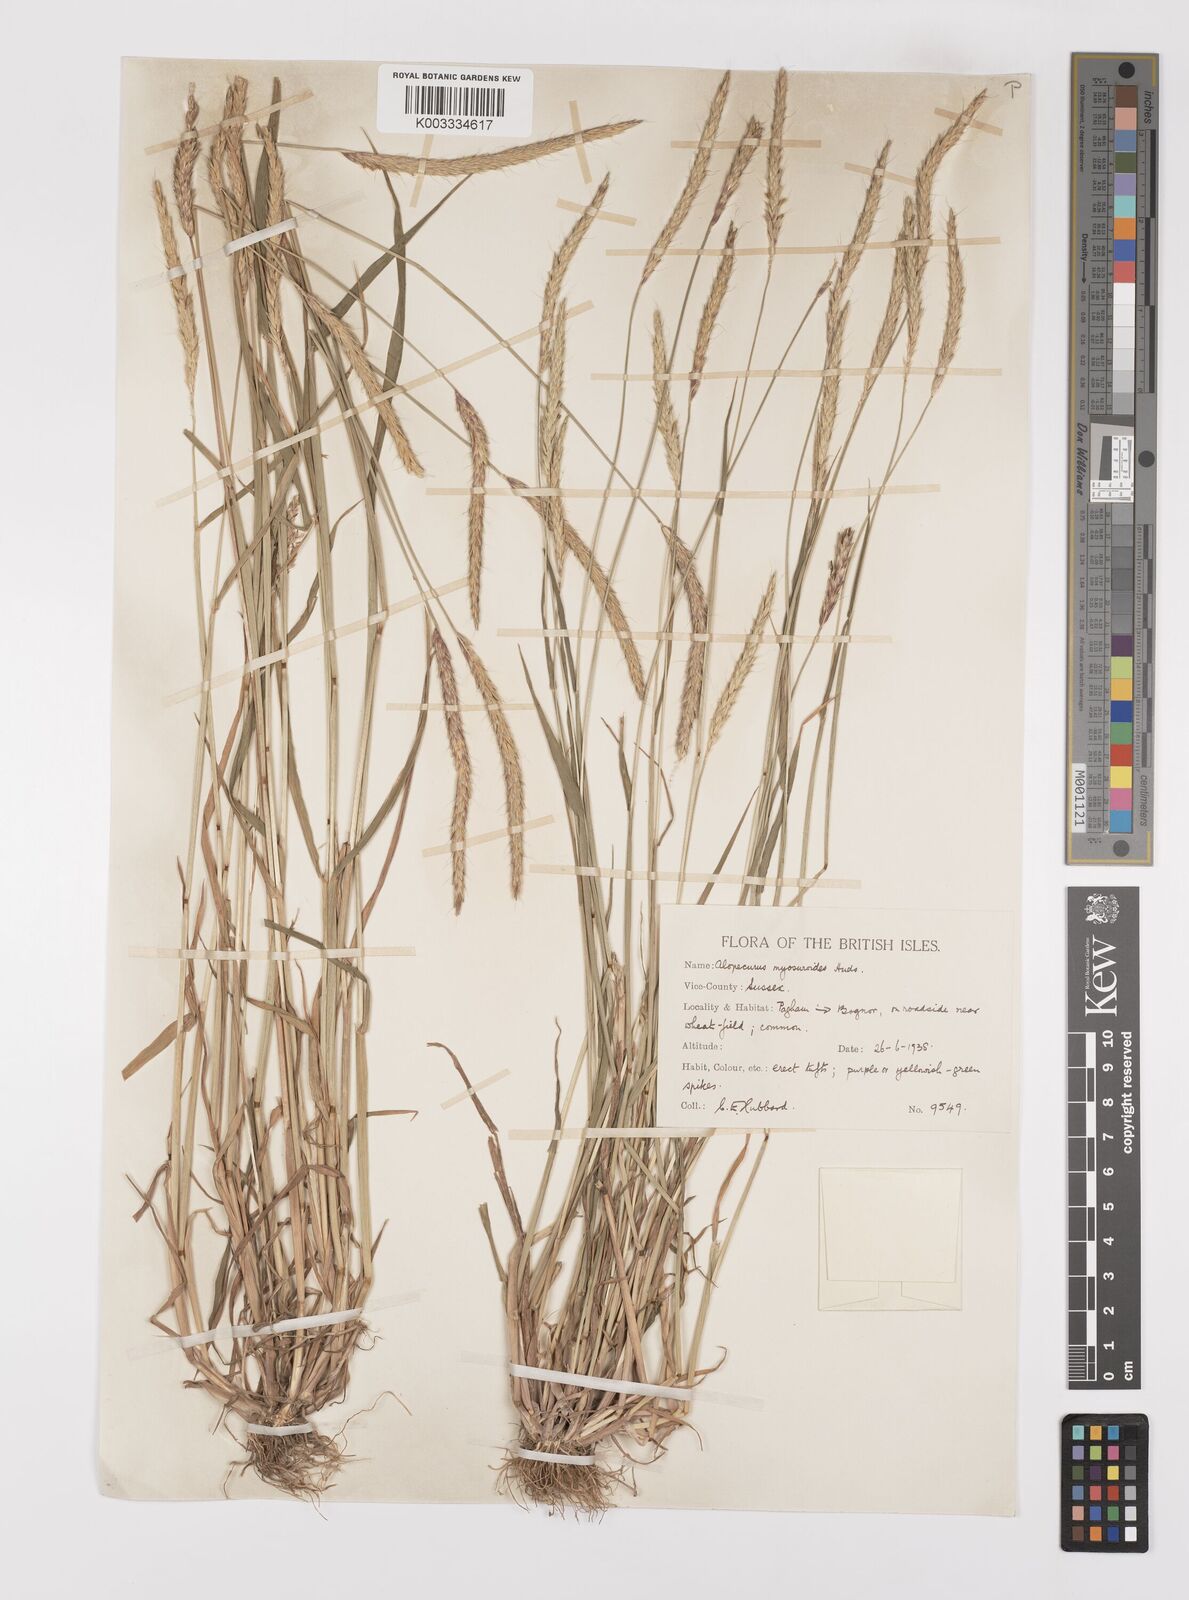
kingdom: Plantae
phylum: Tracheophyta
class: Liliopsida
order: Poales
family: Poaceae
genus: Alopecurus
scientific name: Alopecurus myosuroides
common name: Black-grass
